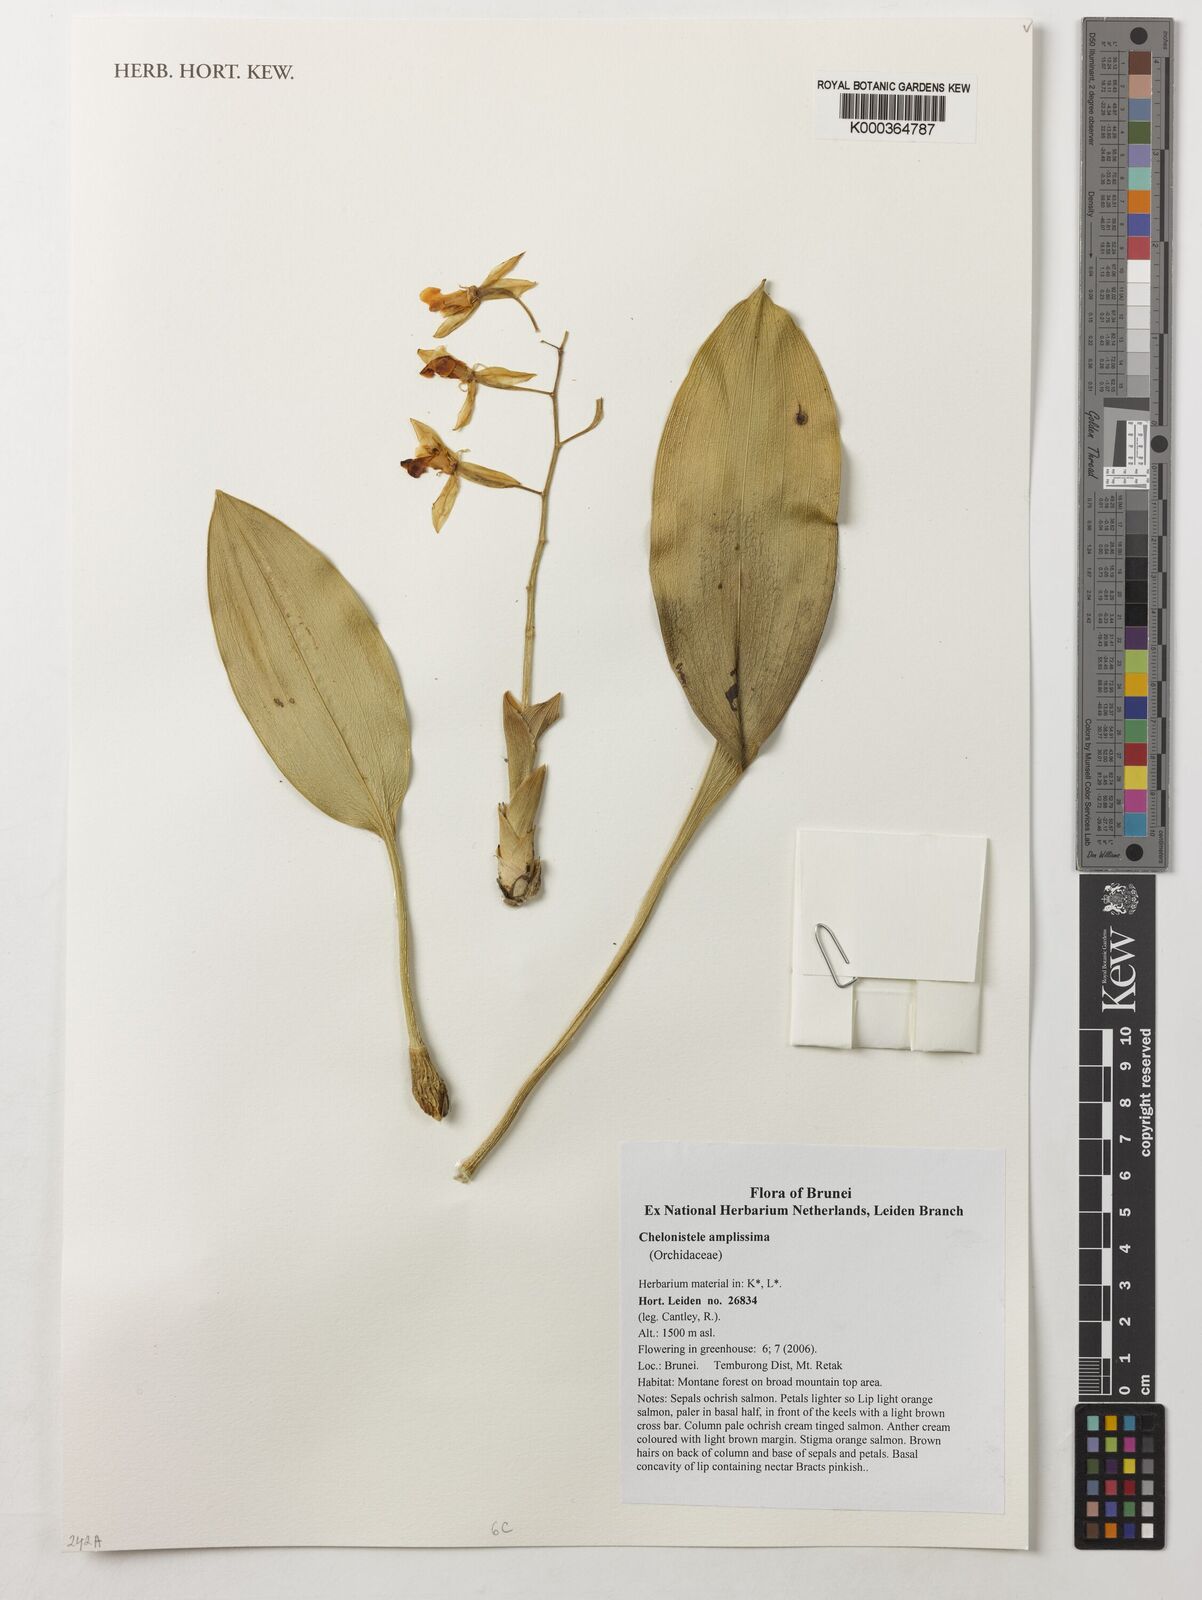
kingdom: Plantae
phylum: Tracheophyta
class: Liliopsida
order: Asparagales
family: Orchidaceae
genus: Coelogyne
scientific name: Coelogyne amplissima
